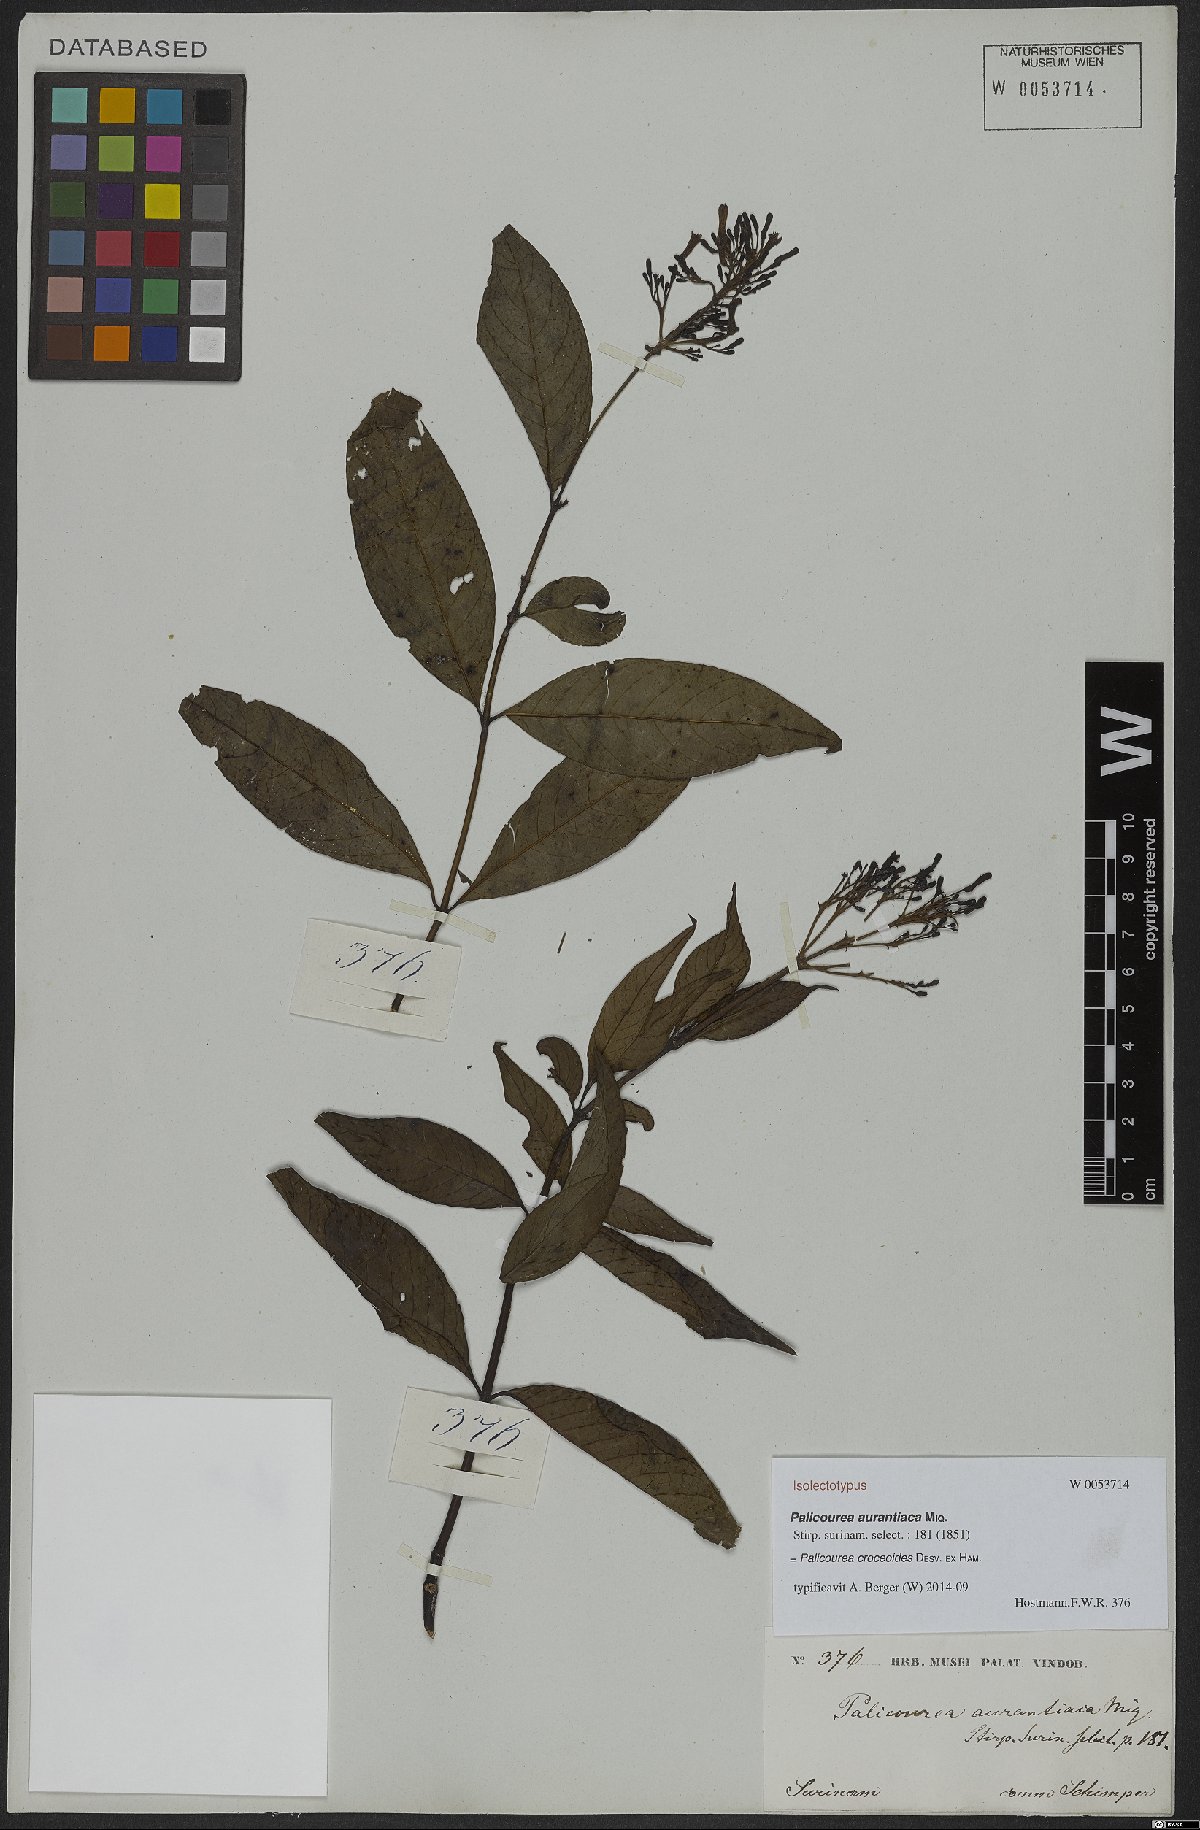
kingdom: Plantae
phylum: Tracheophyta
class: Magnoliopsida
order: Gentianales
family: Rubiaceae
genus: Palicourea
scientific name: Palicourea croceoides
